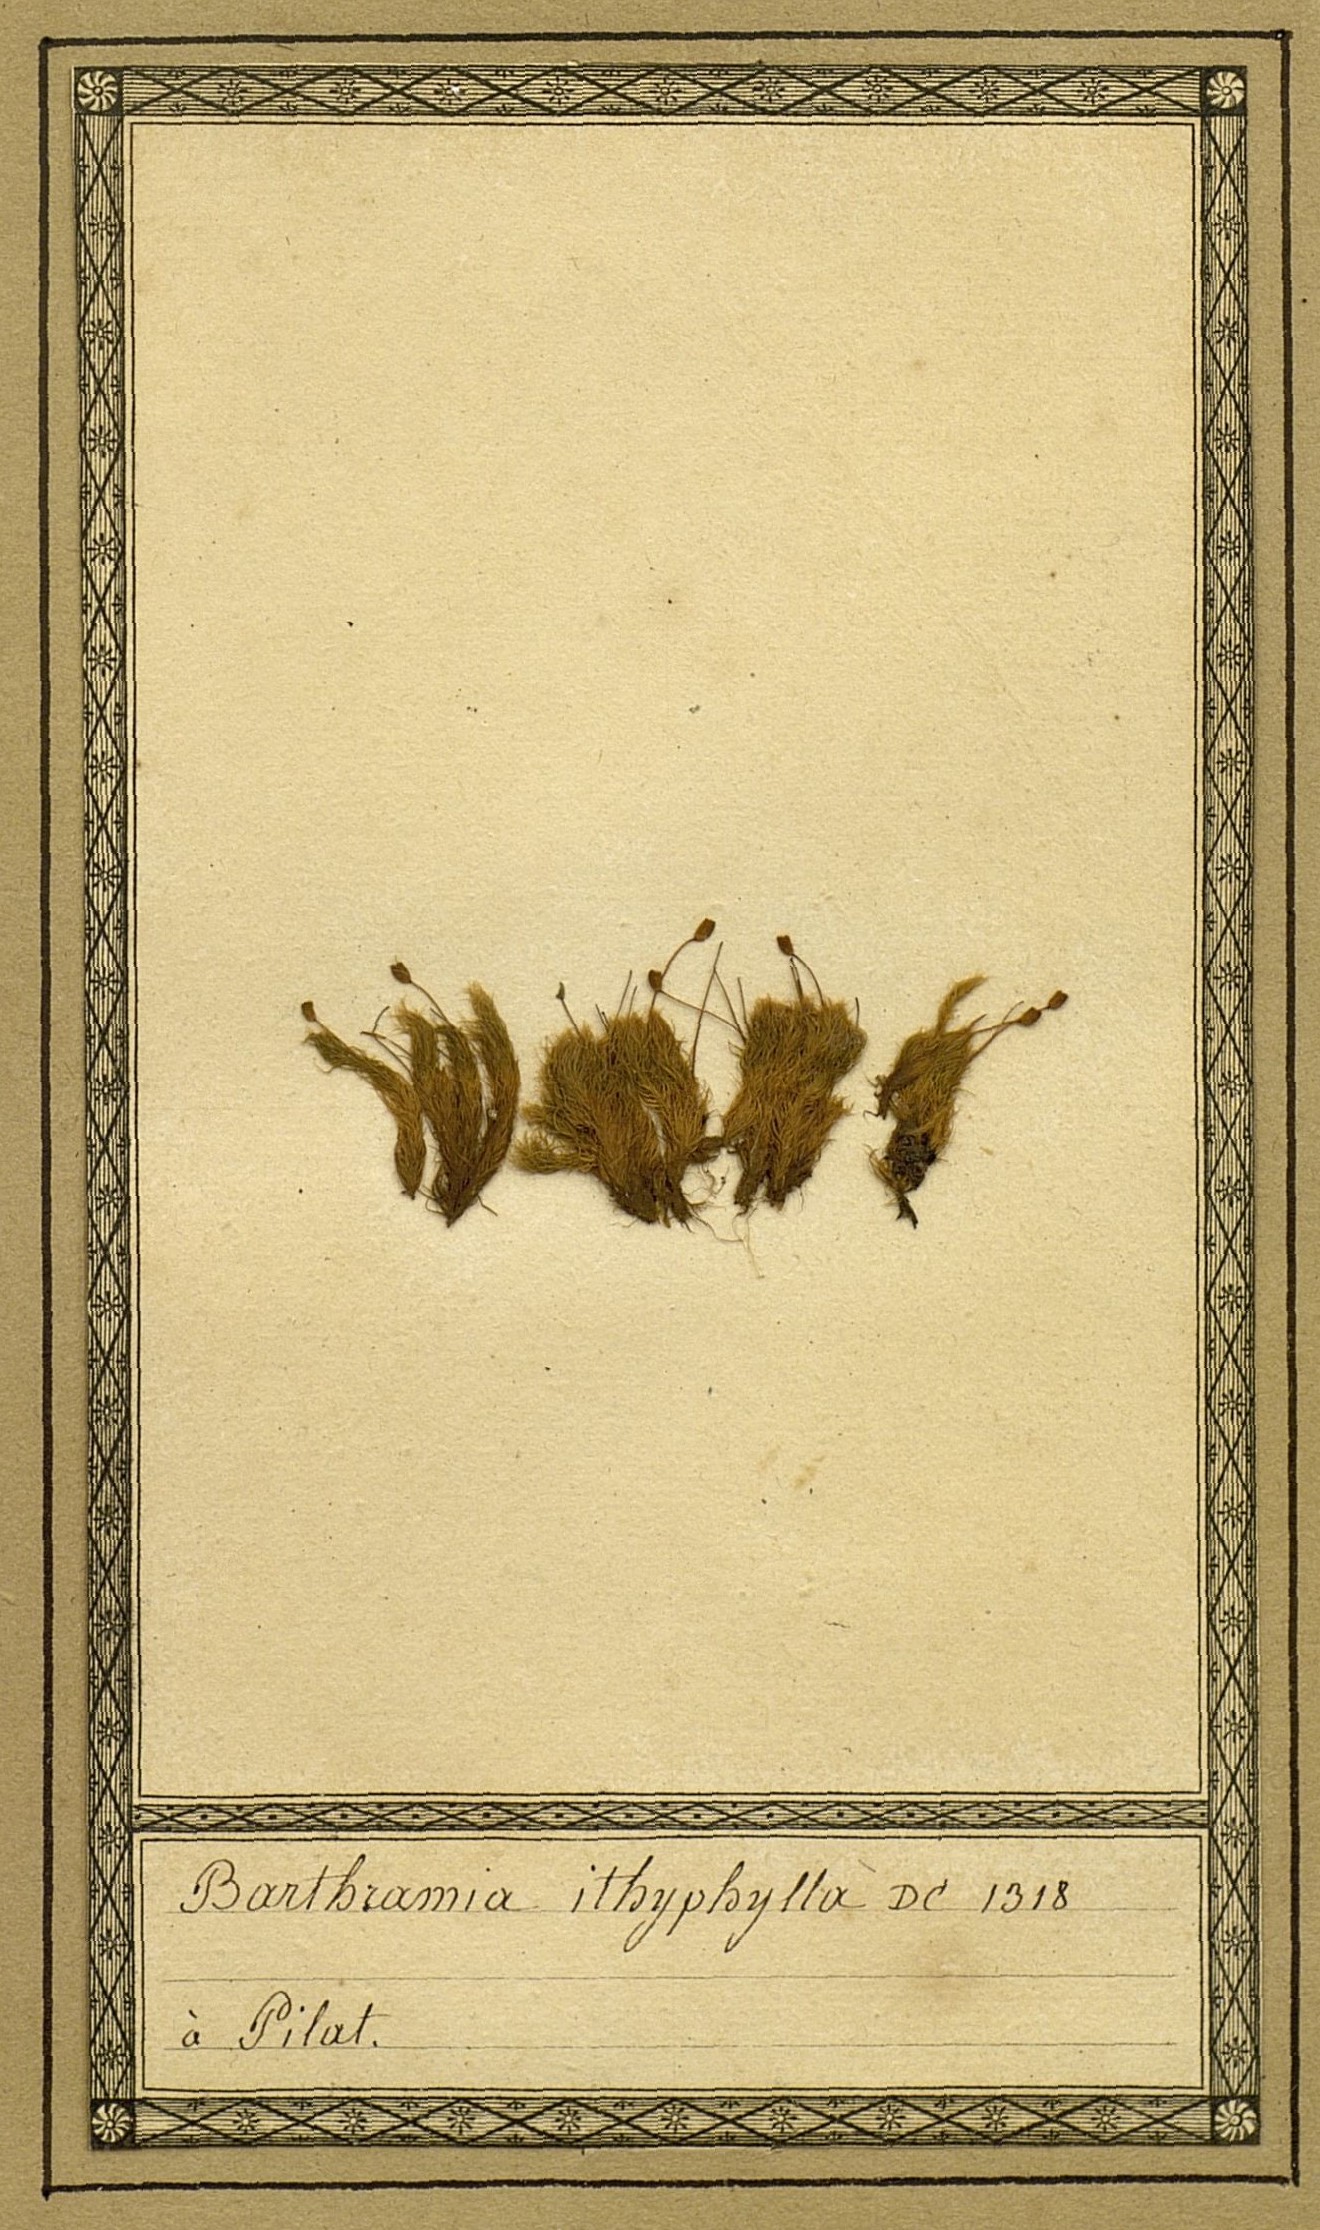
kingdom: Plantae
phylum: Bryophyta
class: Bryopsida
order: Bartramiales
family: Bartramiaceae
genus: Bartramia
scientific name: Bartramia ithyphylla
